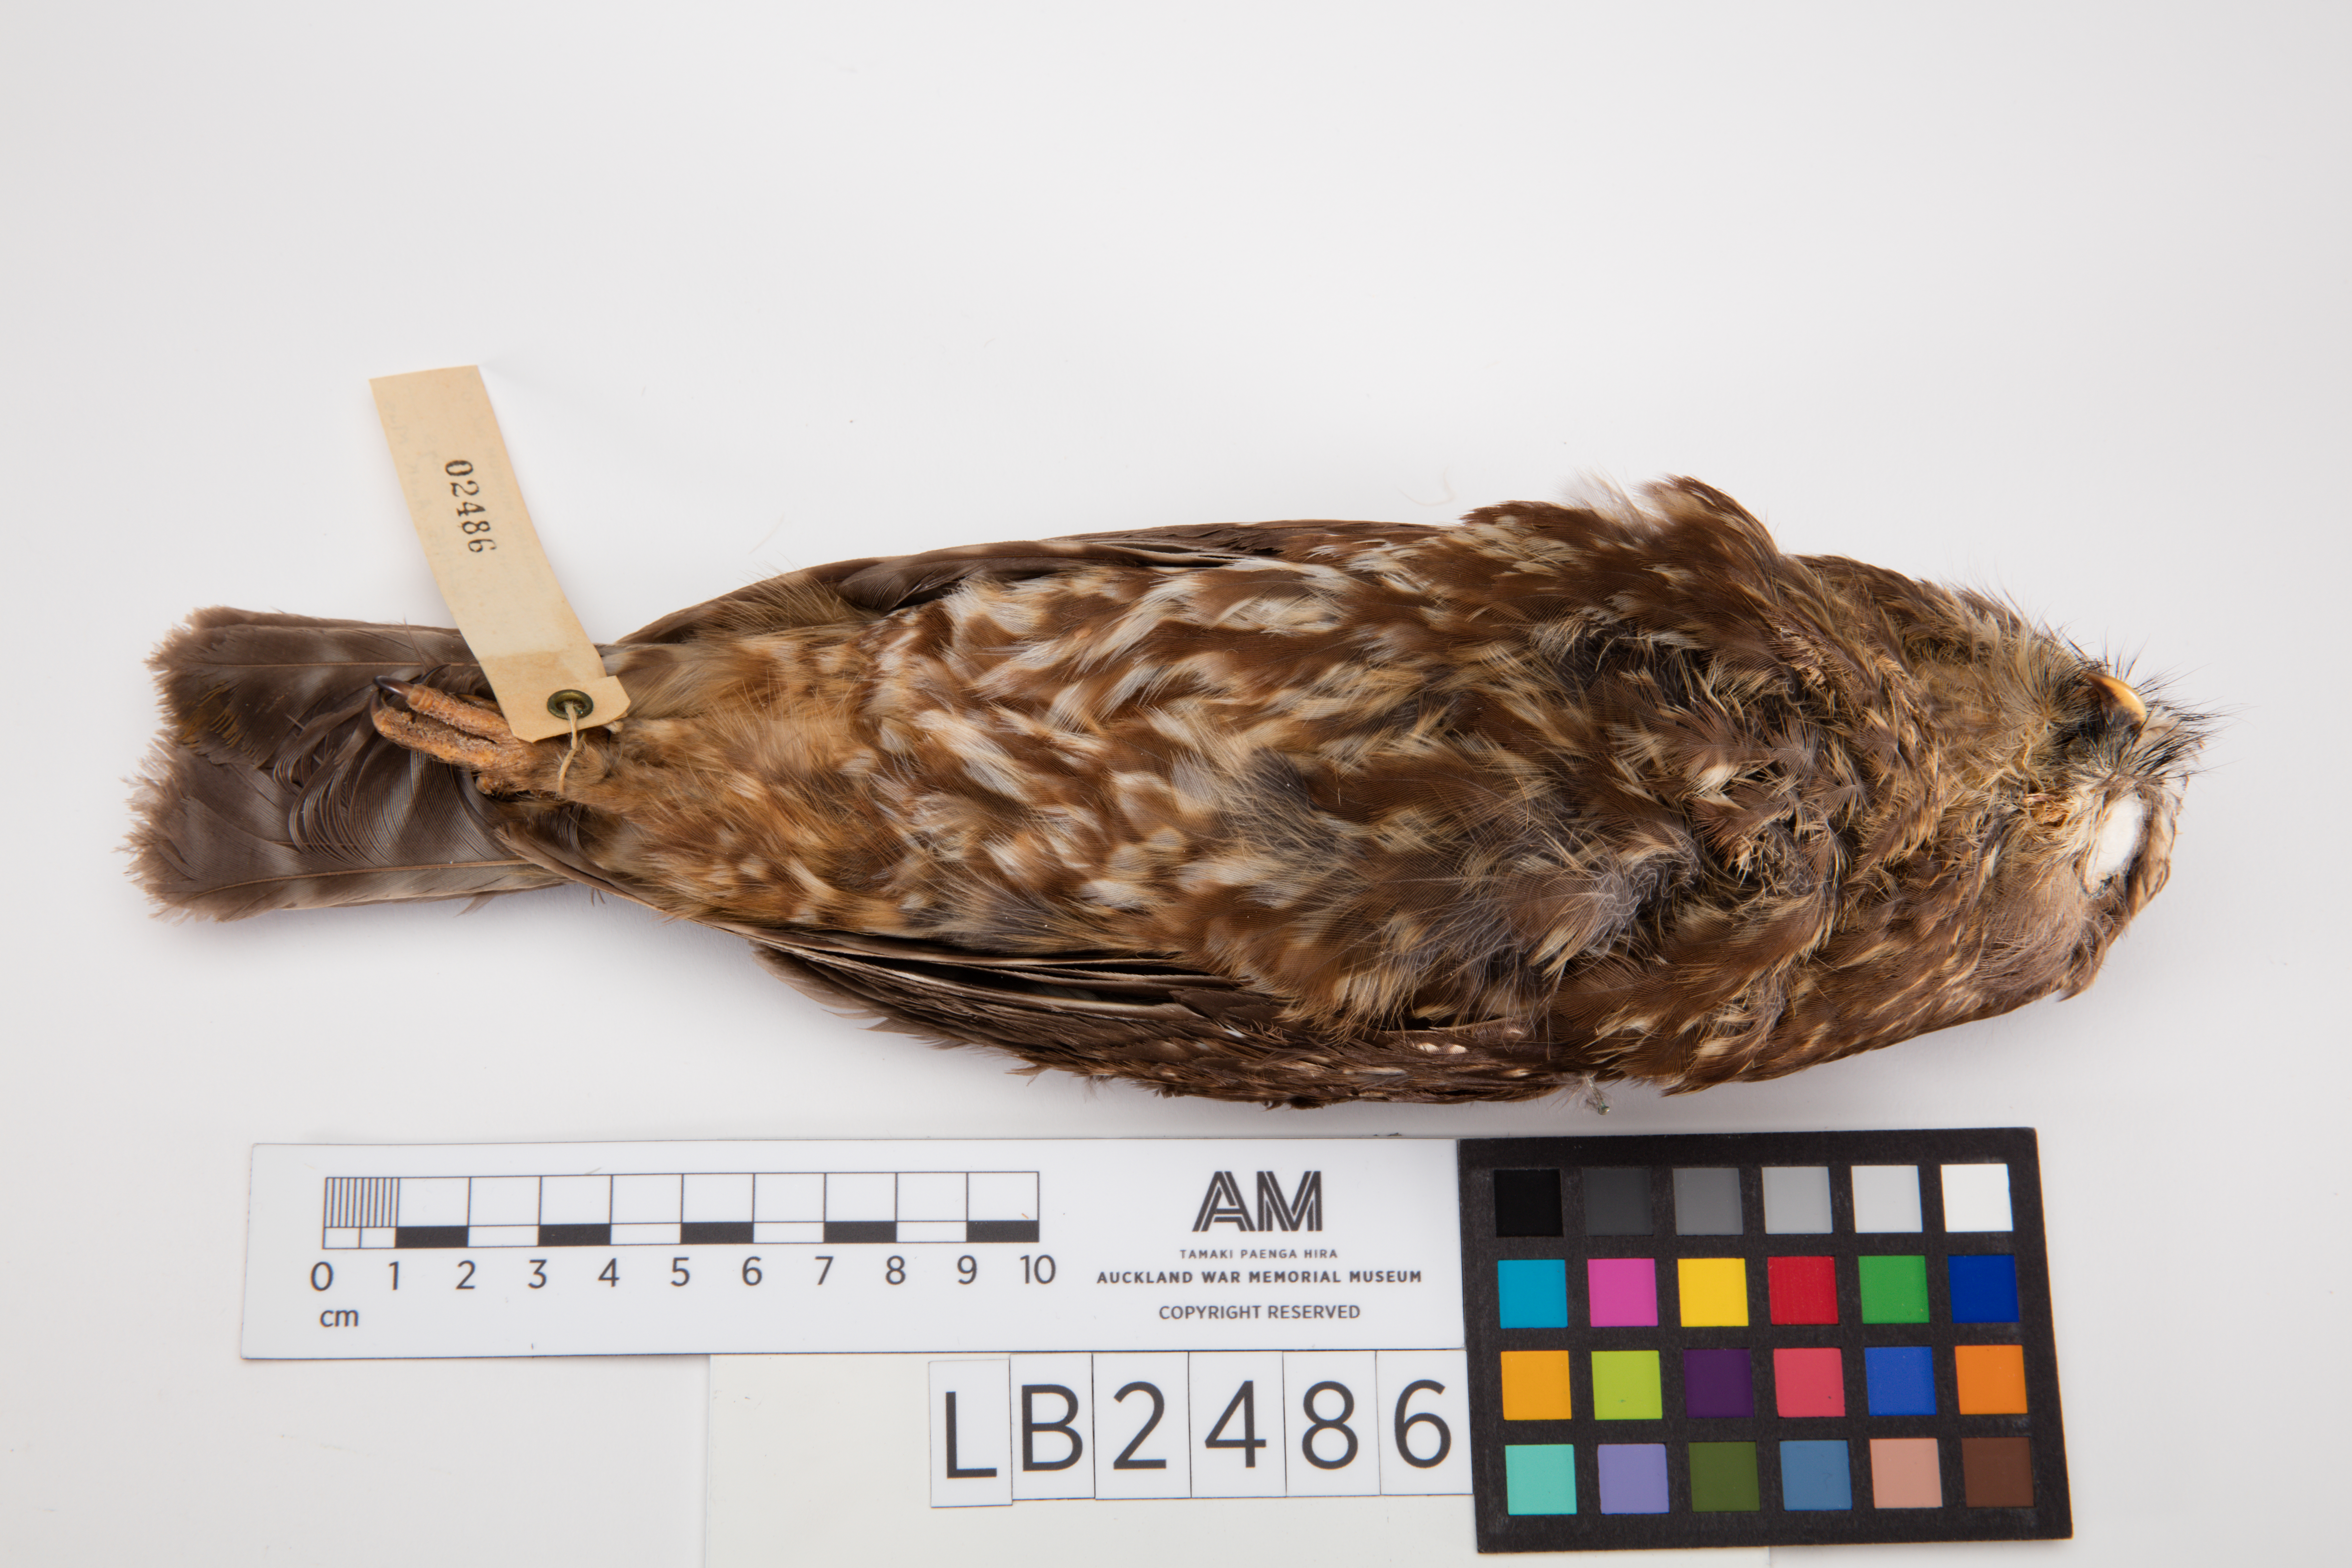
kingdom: Animalia
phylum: Chordata
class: Aves
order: Strigiformes
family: Strigidae
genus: Ninox
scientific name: Ninox novaeseelandiae
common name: Morepork
